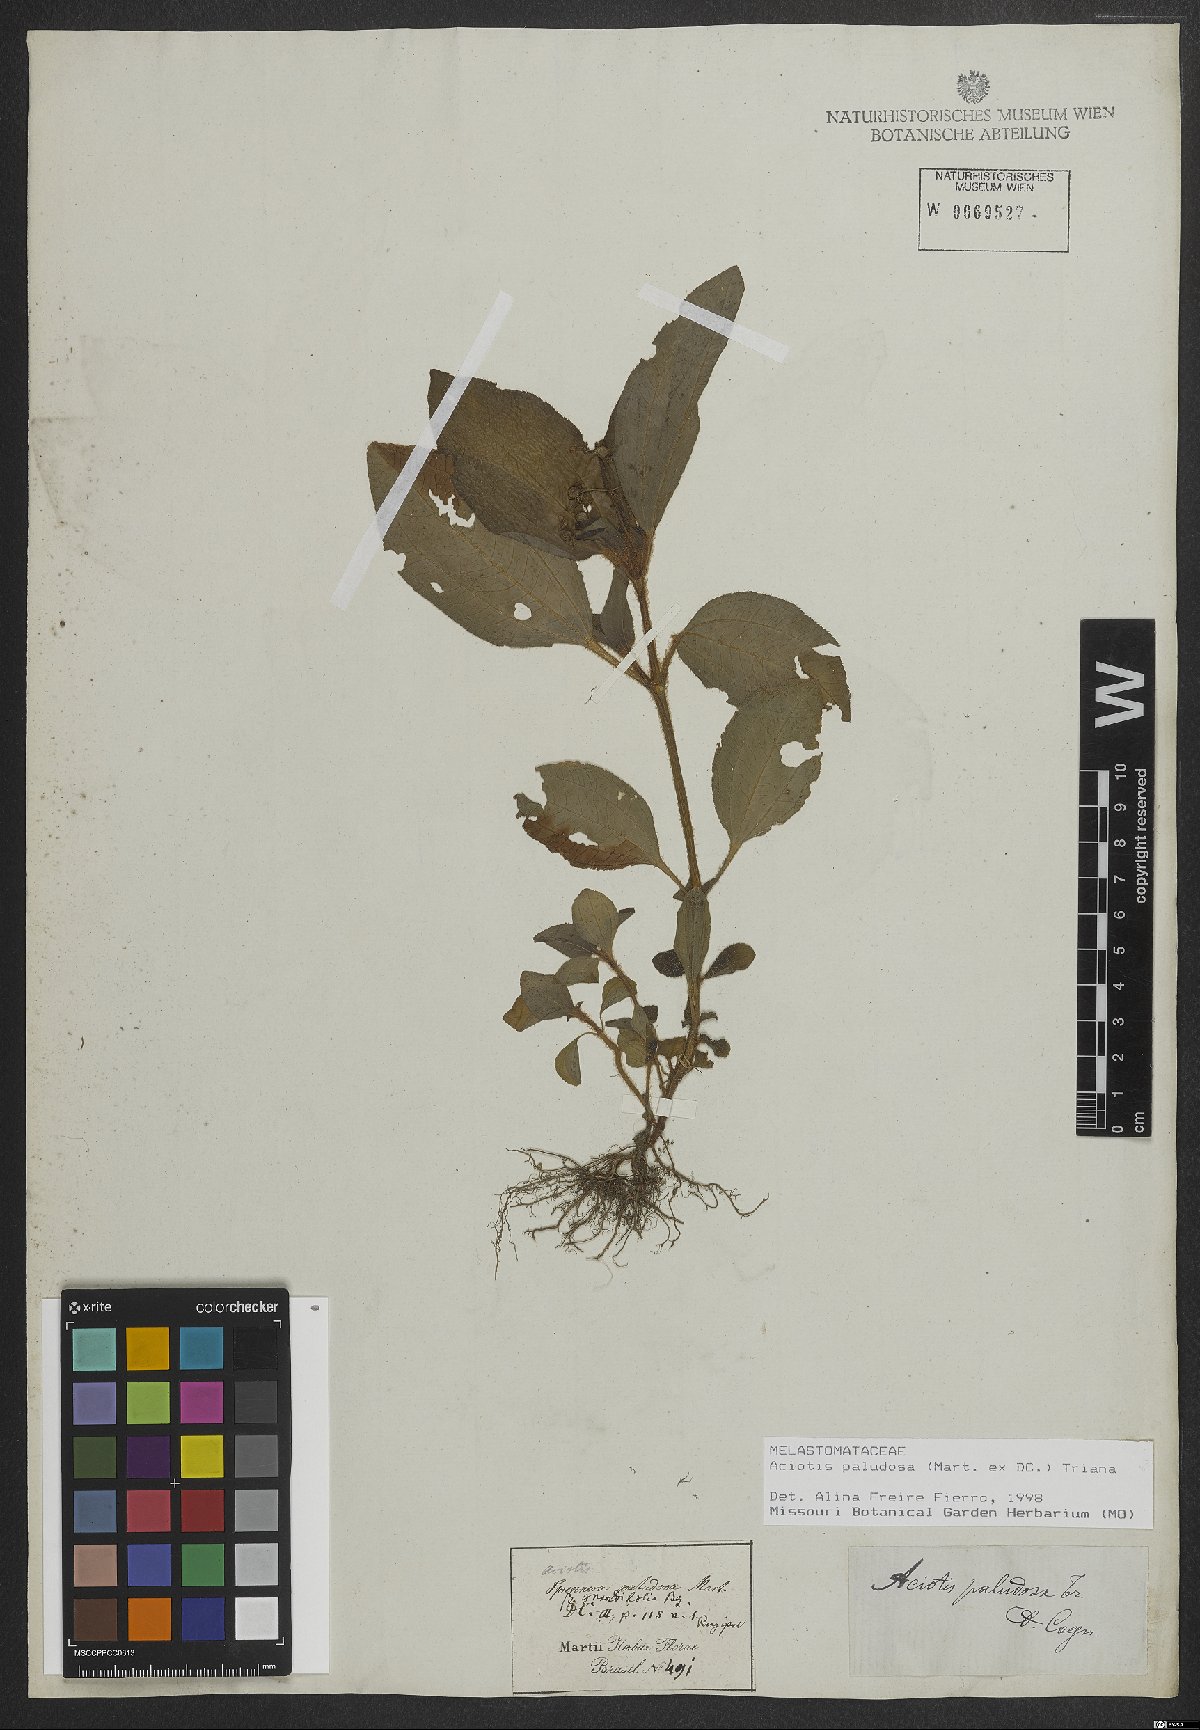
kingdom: Plantae
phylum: Tracheophyta
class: Magnoliopsida
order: Myrtales
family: Melastomataceae
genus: Aciotis
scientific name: Aciotis paludosa
